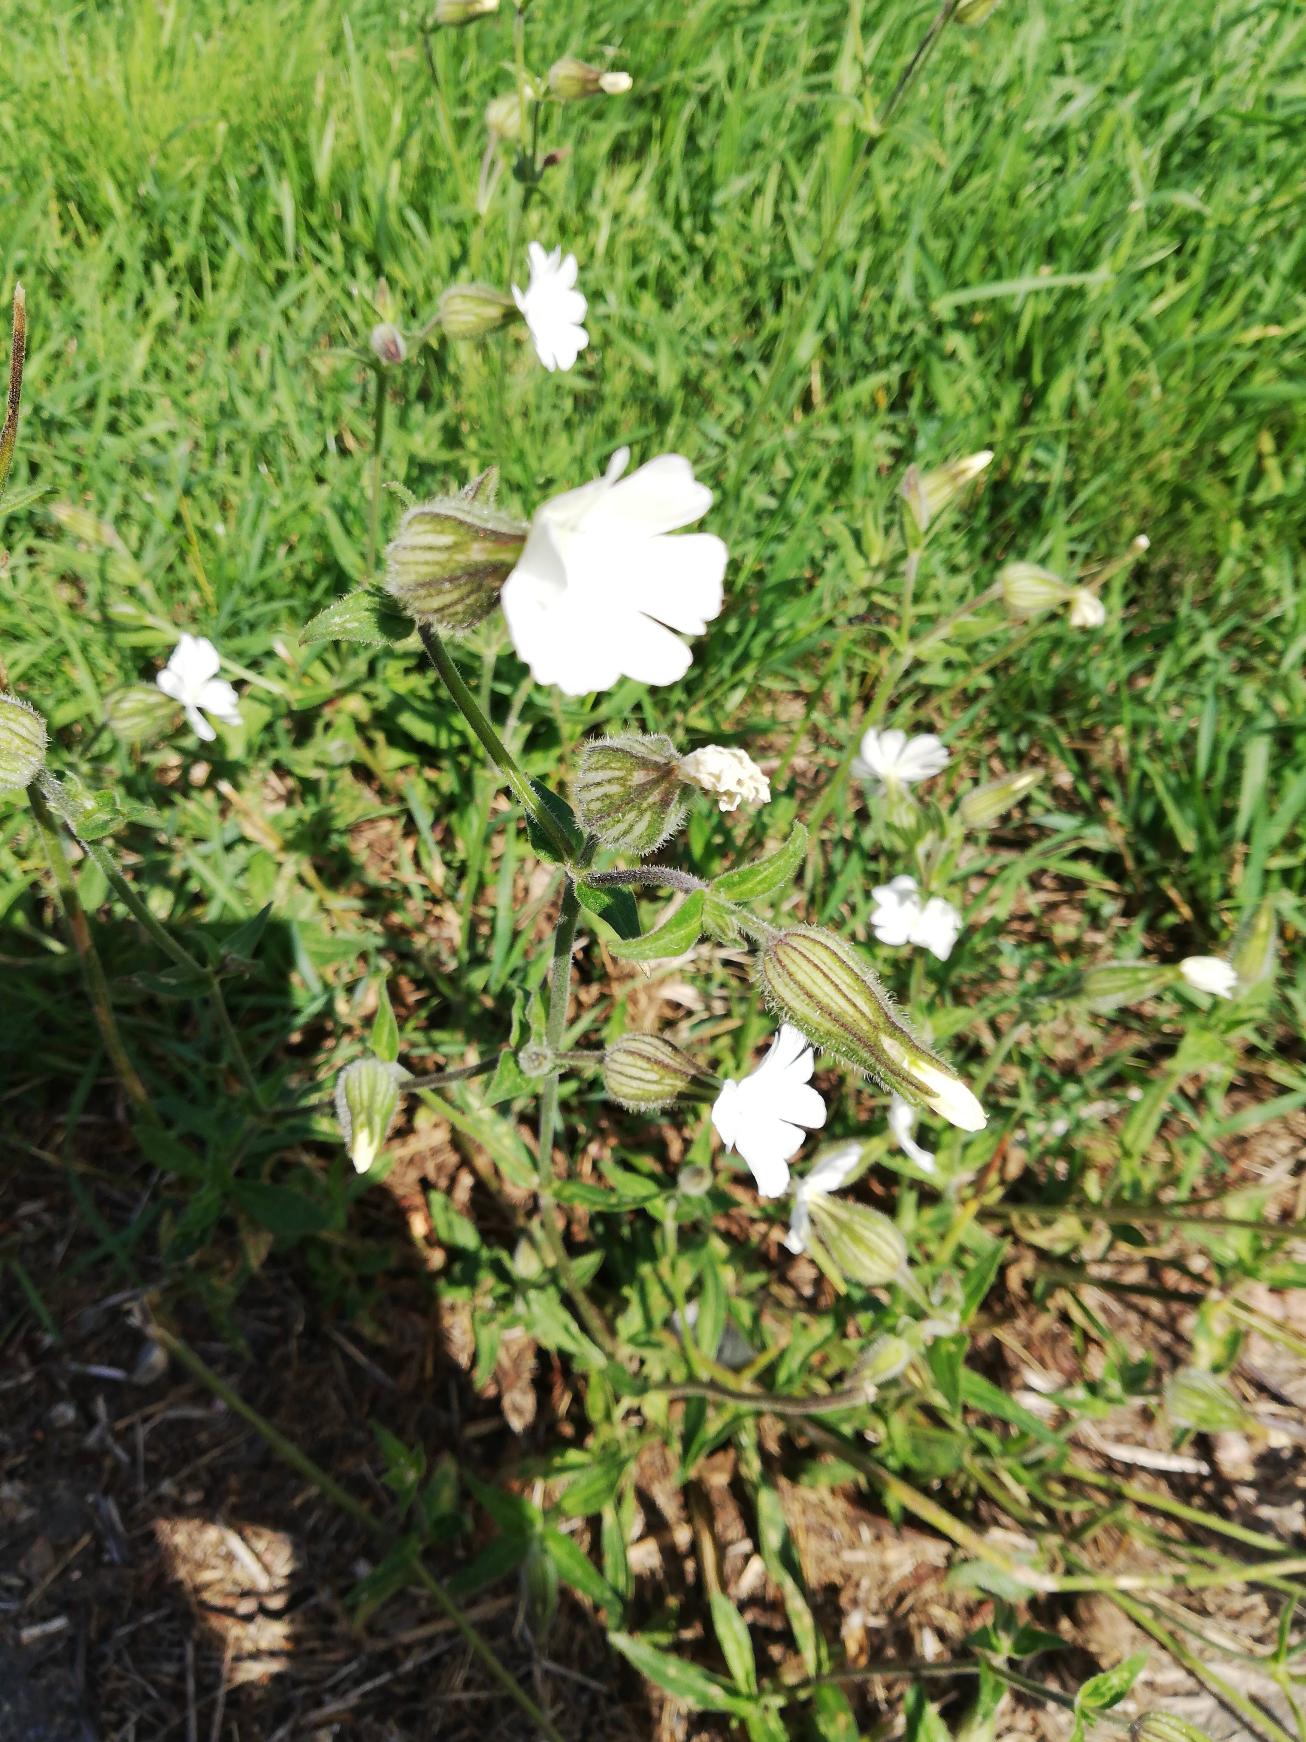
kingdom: Plantae
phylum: Tracheophyta
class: Magnoliopsida
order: Caryophyllales
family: Caryophyllaceae
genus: Silene
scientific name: Silene latifolia
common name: Aftenpragtstjerne
